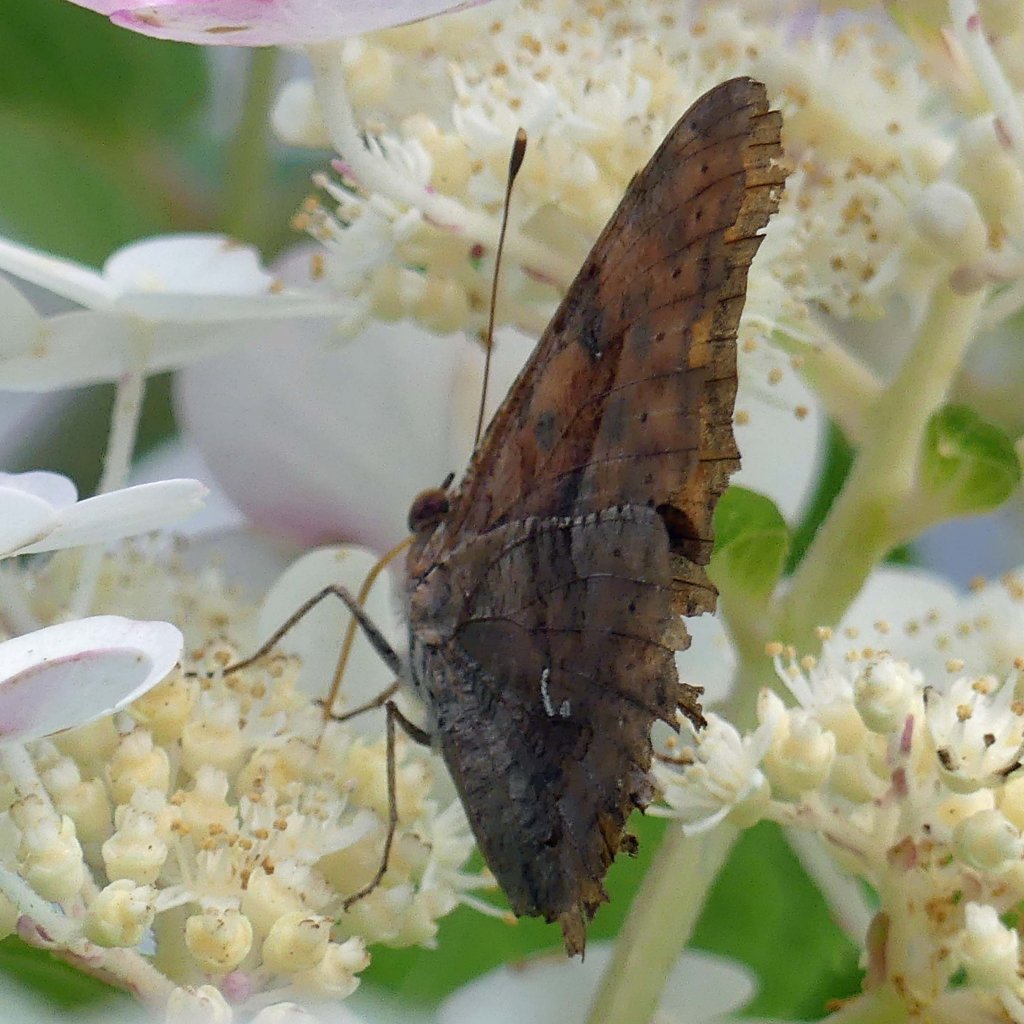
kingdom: Animalia
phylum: Arthropoda
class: Insecta
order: Lepidoptera
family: Nymphalidae
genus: Polygonia
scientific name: Polygonia interrogationis
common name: Question Mark
